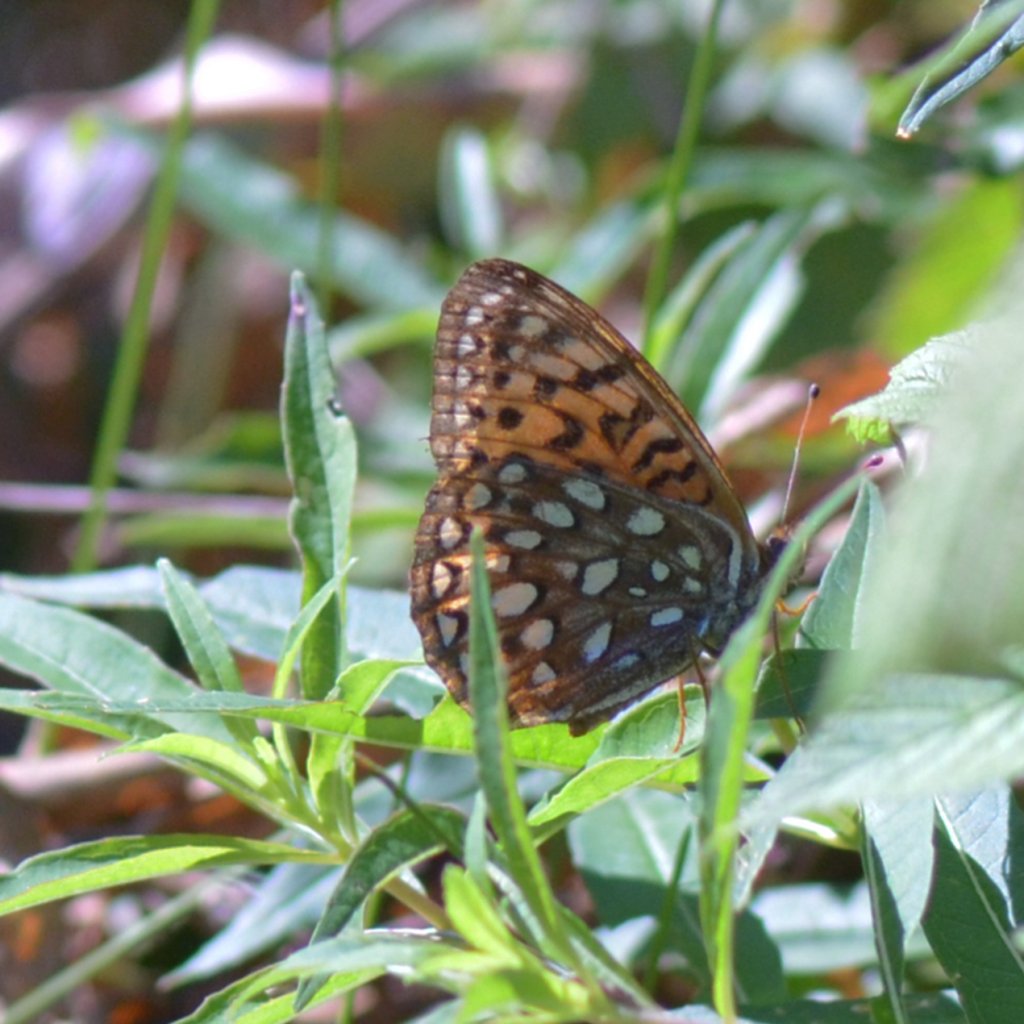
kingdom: Animalia
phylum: Arthropoda
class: Insecta
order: Lepidoptera
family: Nymphalidae
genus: Speyeria
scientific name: Speyeria atlantis
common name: Atlantis Fritillary
